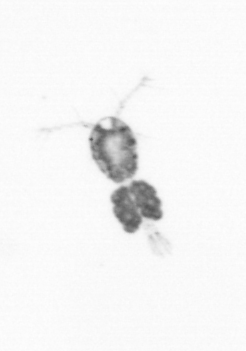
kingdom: Animalia
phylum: Arthropoda
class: Copepoda
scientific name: Copepoda
